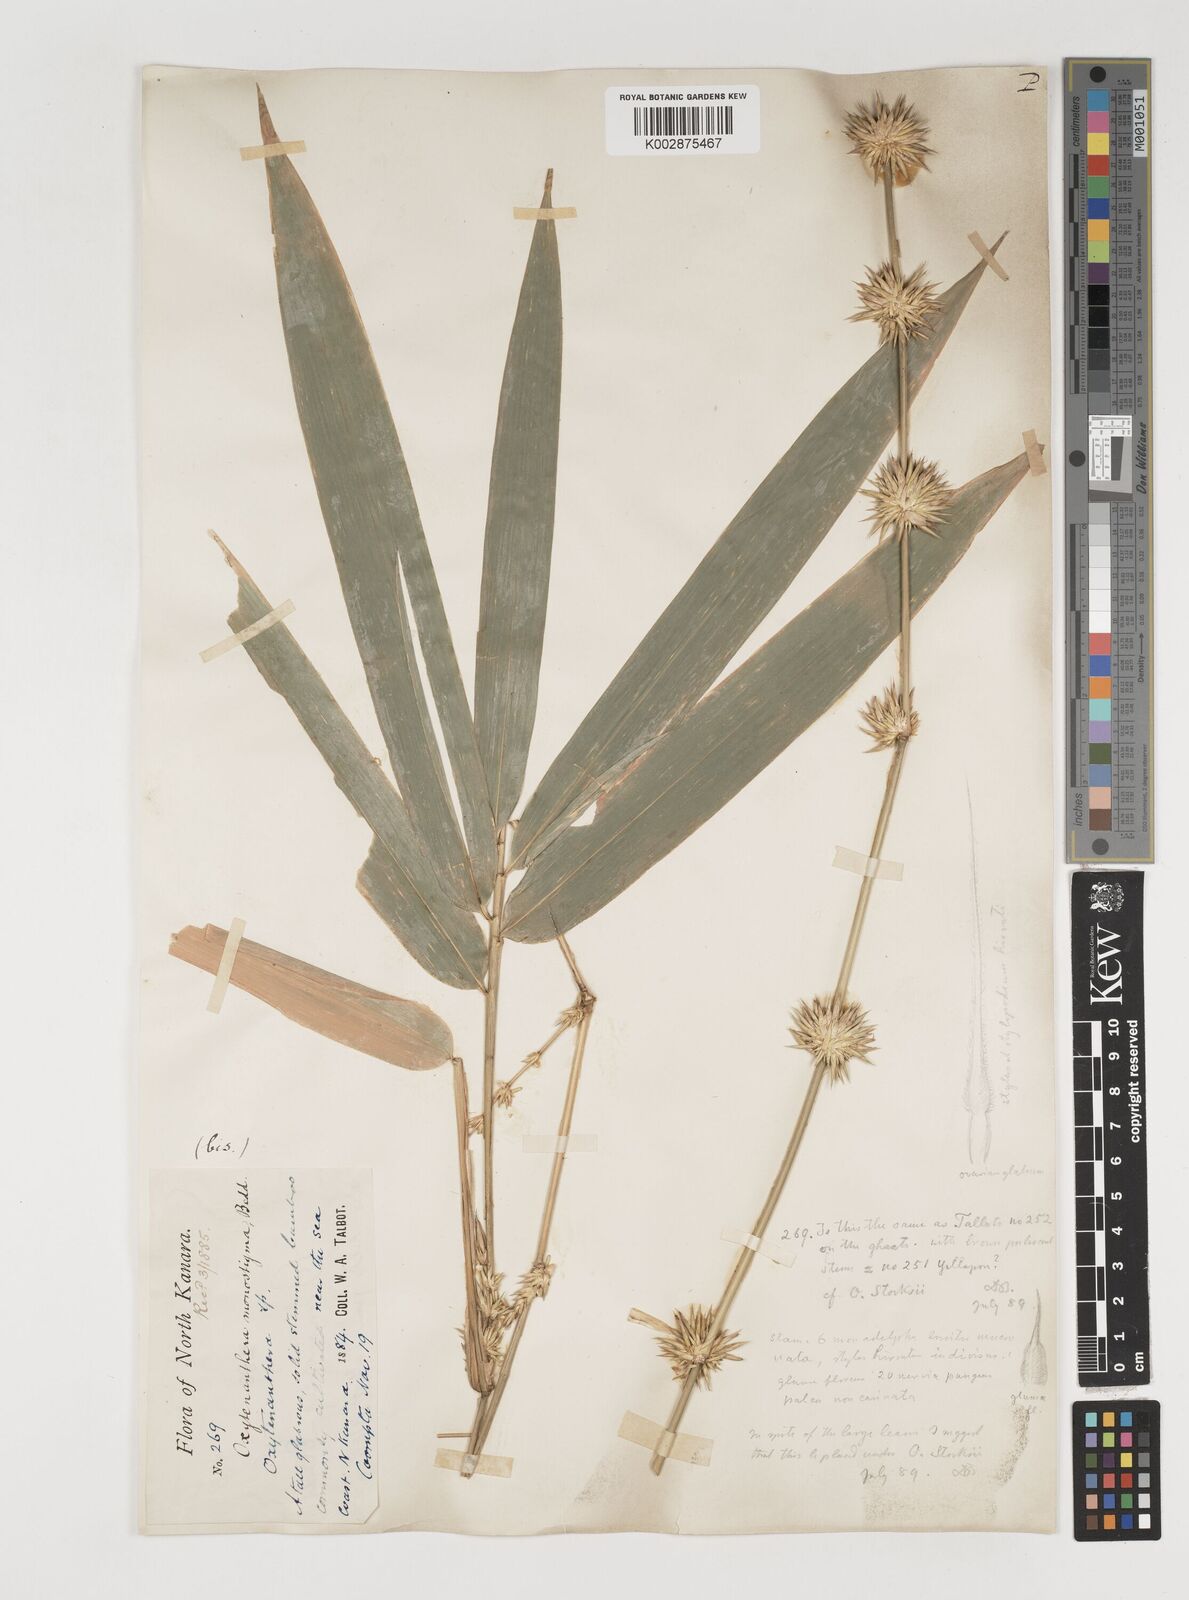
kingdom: Plantae
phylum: Tracheophyta
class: Liliopsida
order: Poales
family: Poaceae
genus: Pseudoxytenanthera
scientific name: Pseudoxytenanthera stocksii
